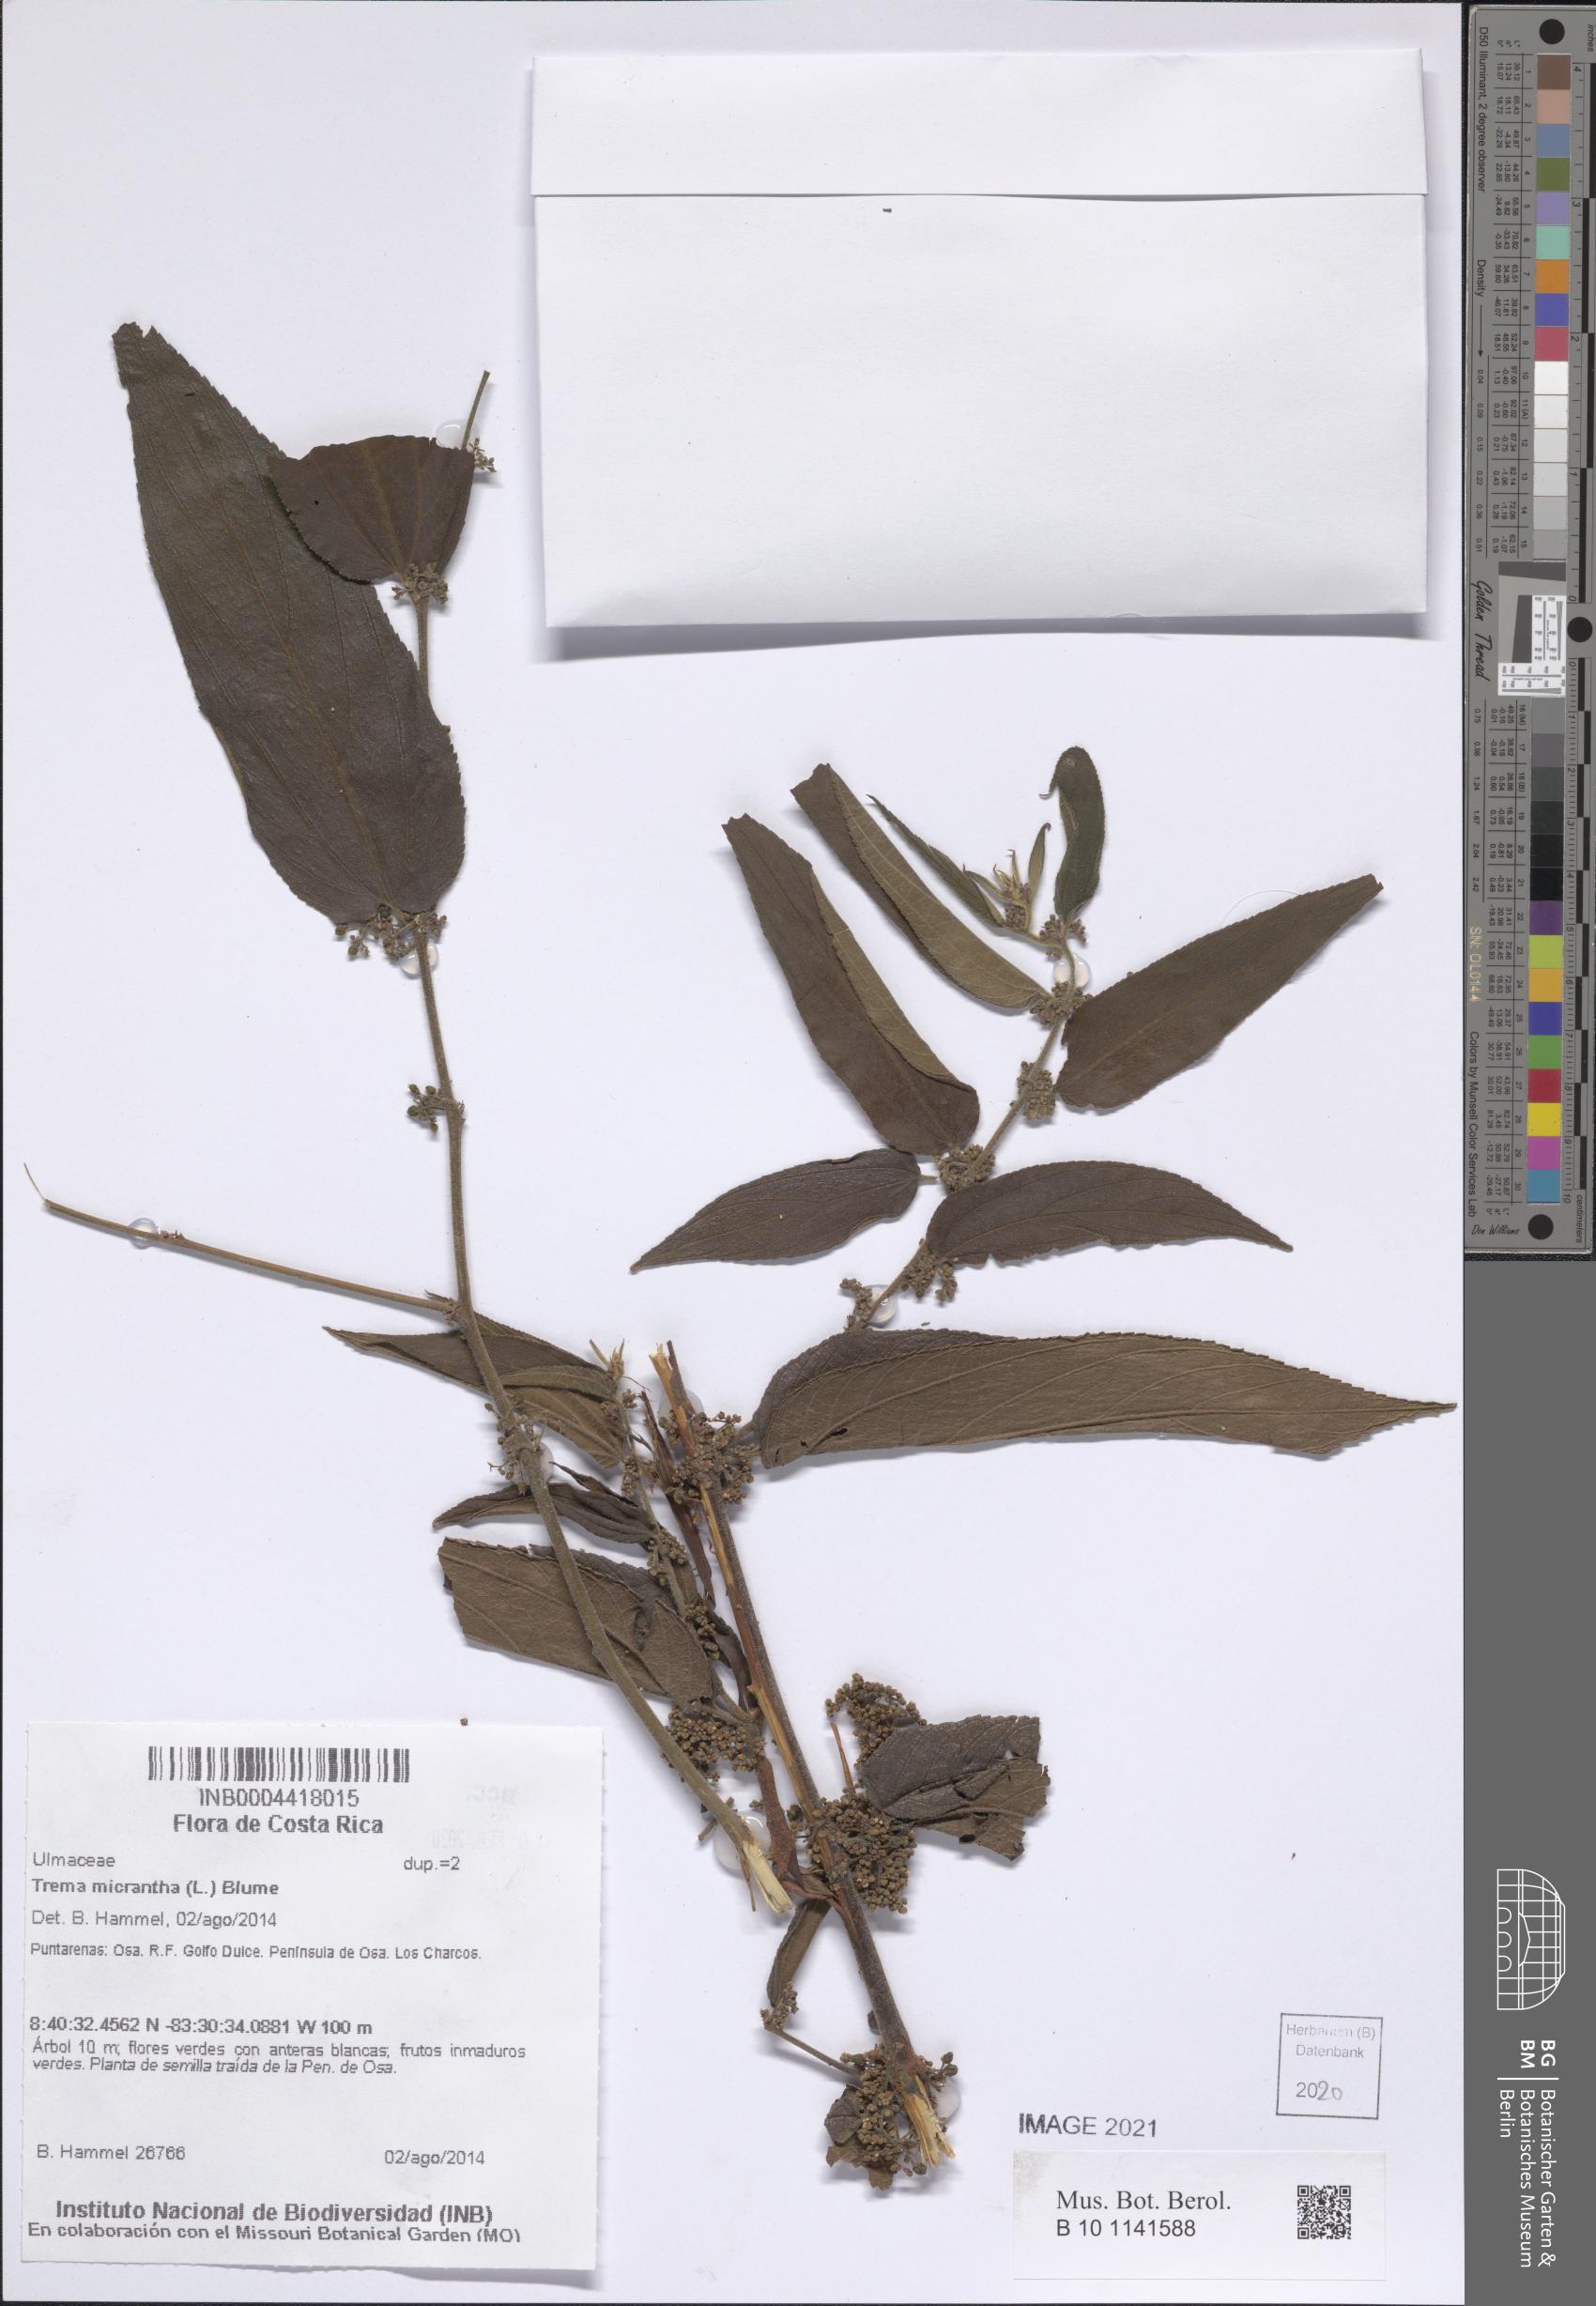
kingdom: Plantae
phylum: Tracheophyta
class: Magnoliopsida
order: Rosales
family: Cannabaceae
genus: Trema
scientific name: Trema micranthum
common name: Jamaican nettletree
